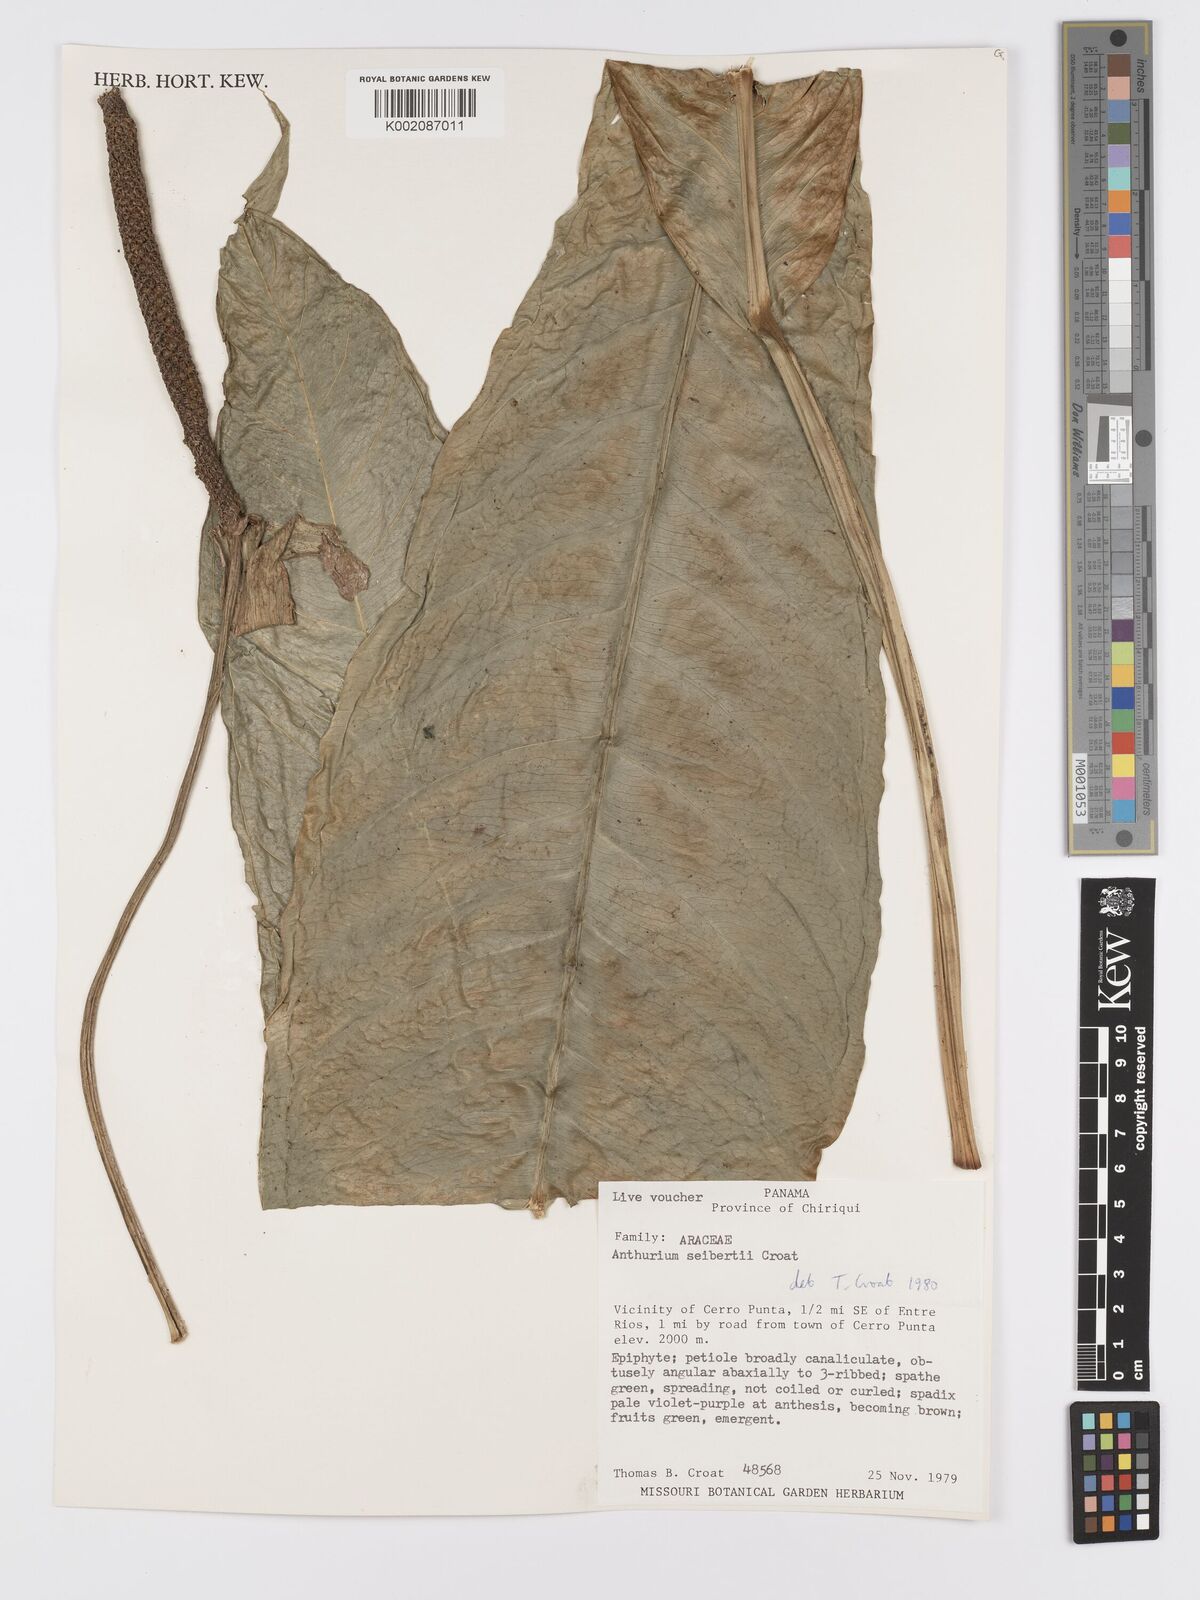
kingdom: Plantae
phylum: Tracheophyta
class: Liliopsida
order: Alismatales
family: Araceae
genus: Anthurium
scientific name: Anthurium seibertii
